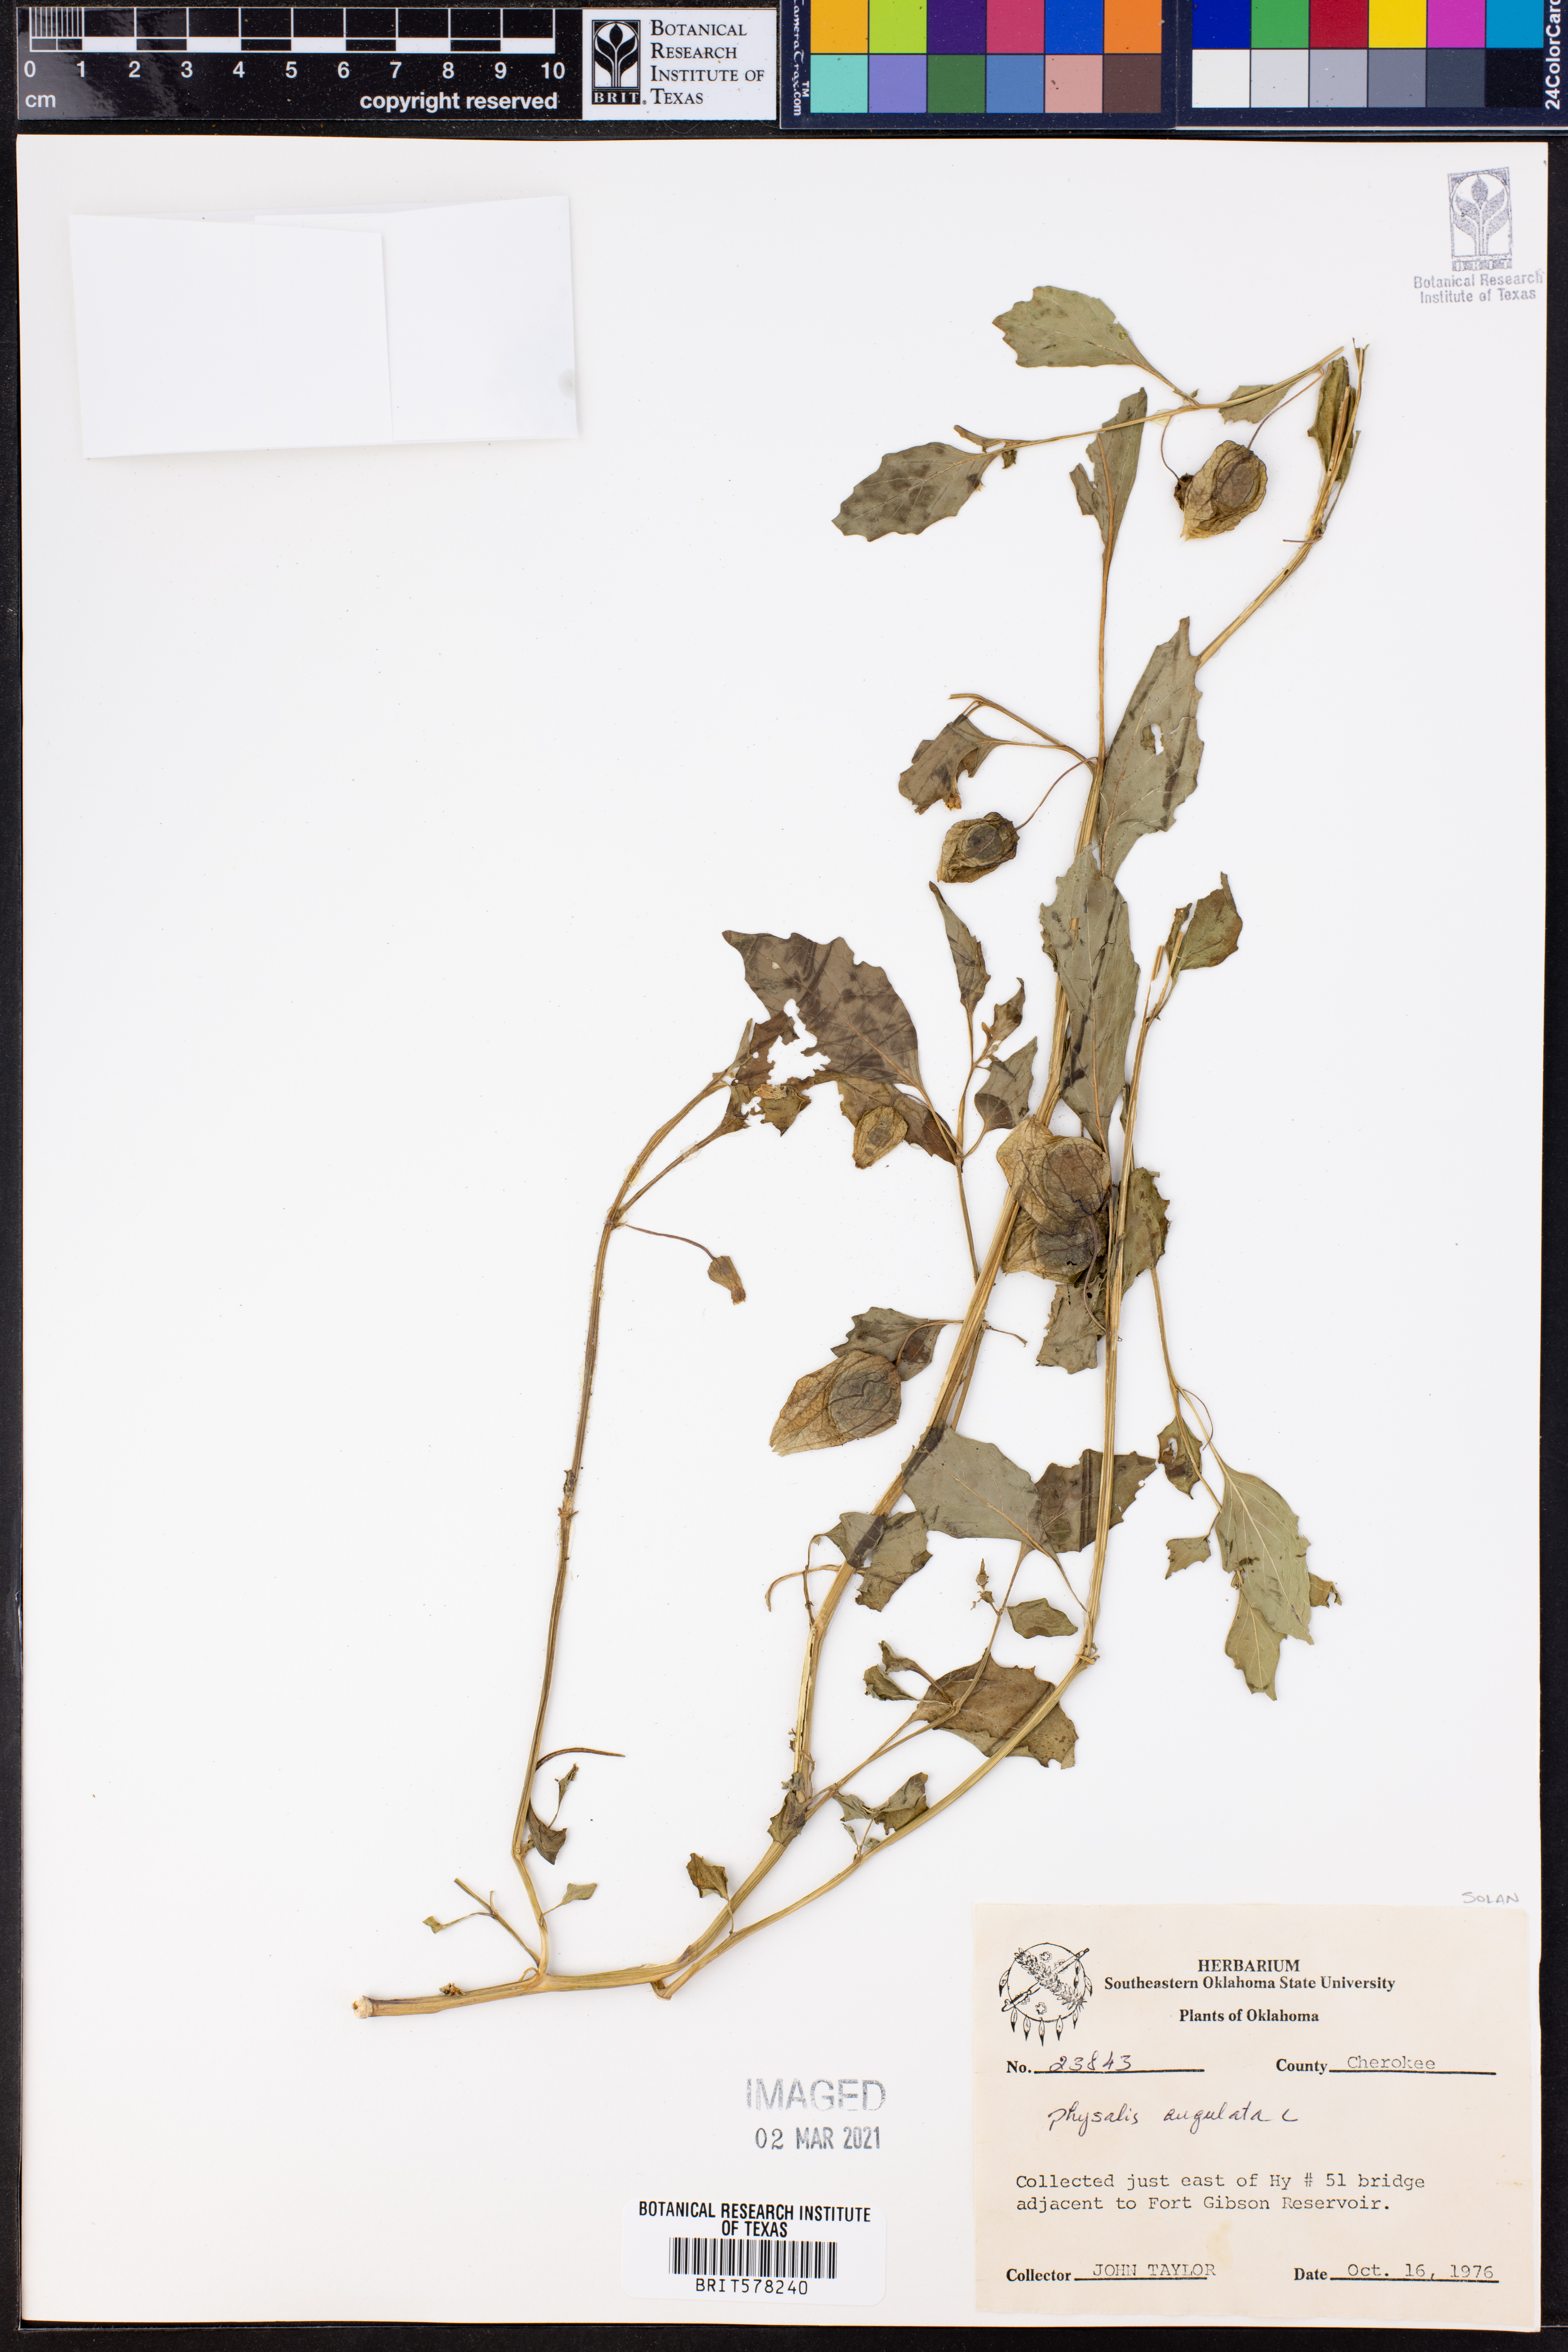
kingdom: Plantae
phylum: Tracheophyta
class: Magnoliopsida
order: Solanales
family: Solanaceae
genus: Physalis
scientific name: Physalis angulata
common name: Angular winter-cherry
